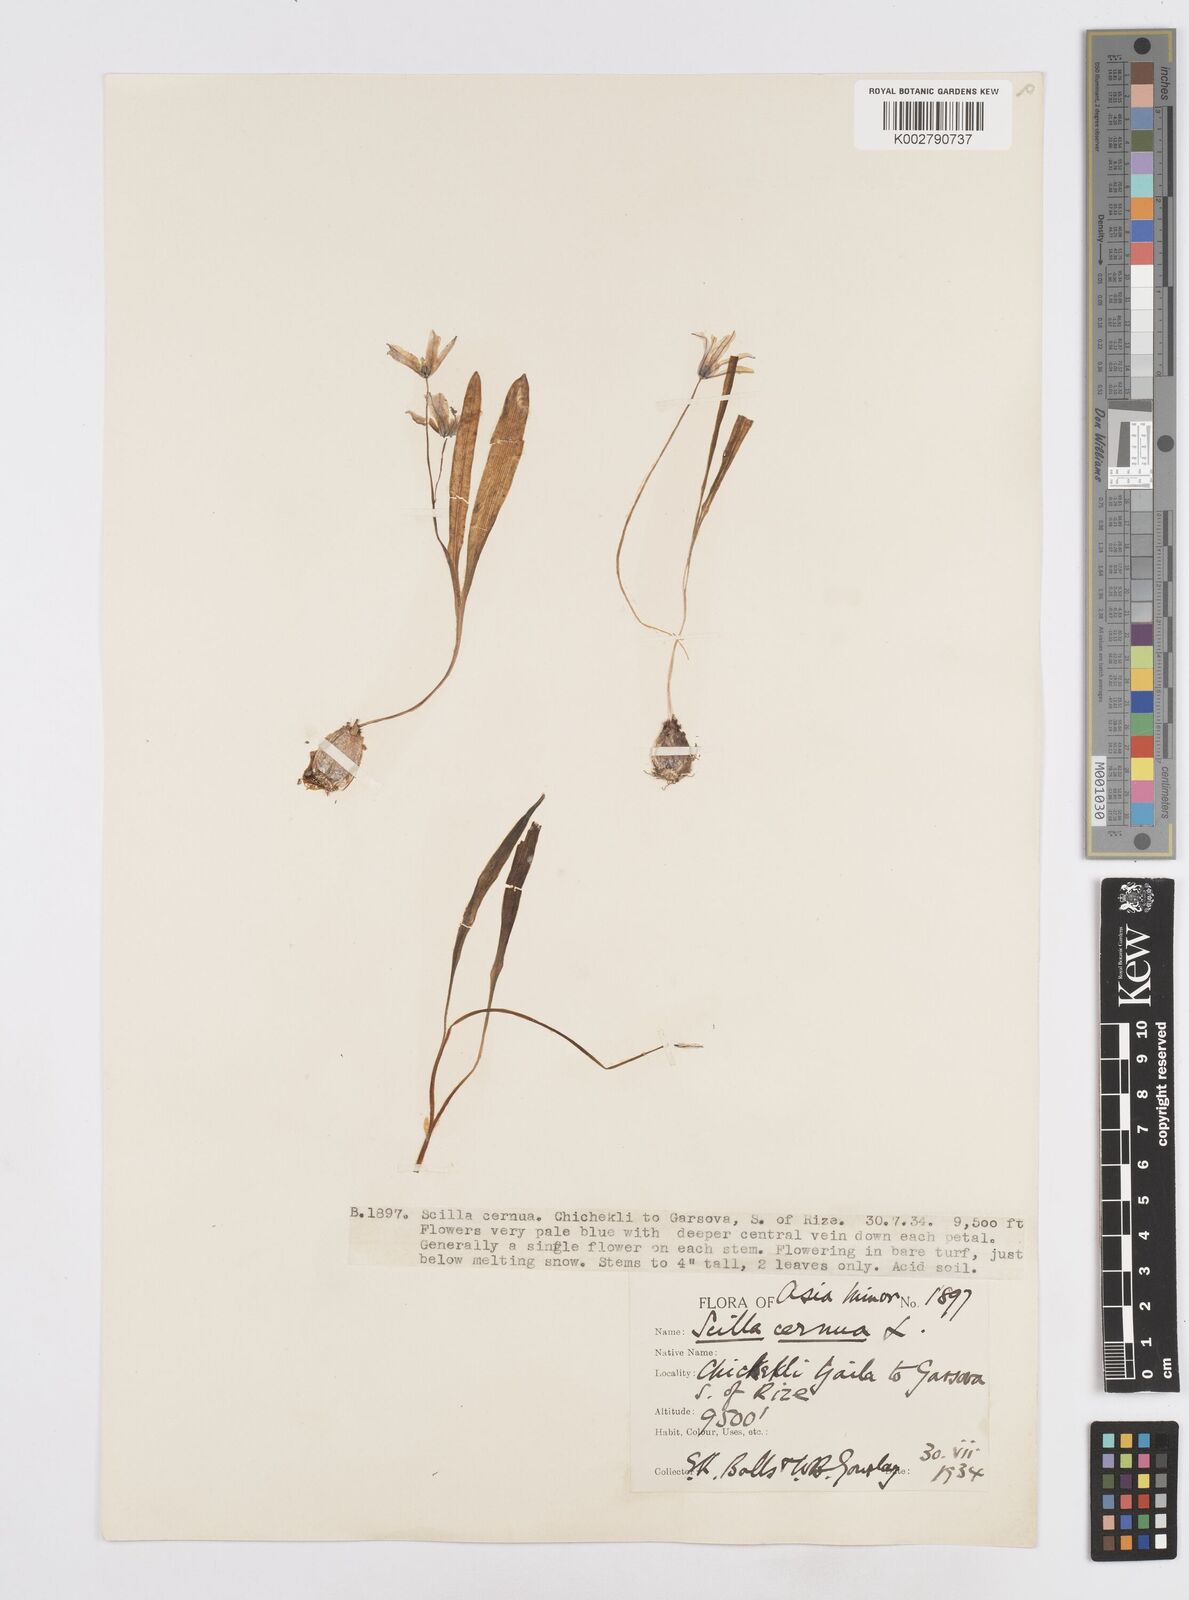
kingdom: Plantae
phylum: Tracheophyta
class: Liliopsida
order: Asparagales
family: Asparagaceae
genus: Scilla
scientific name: Scilla monanthos
